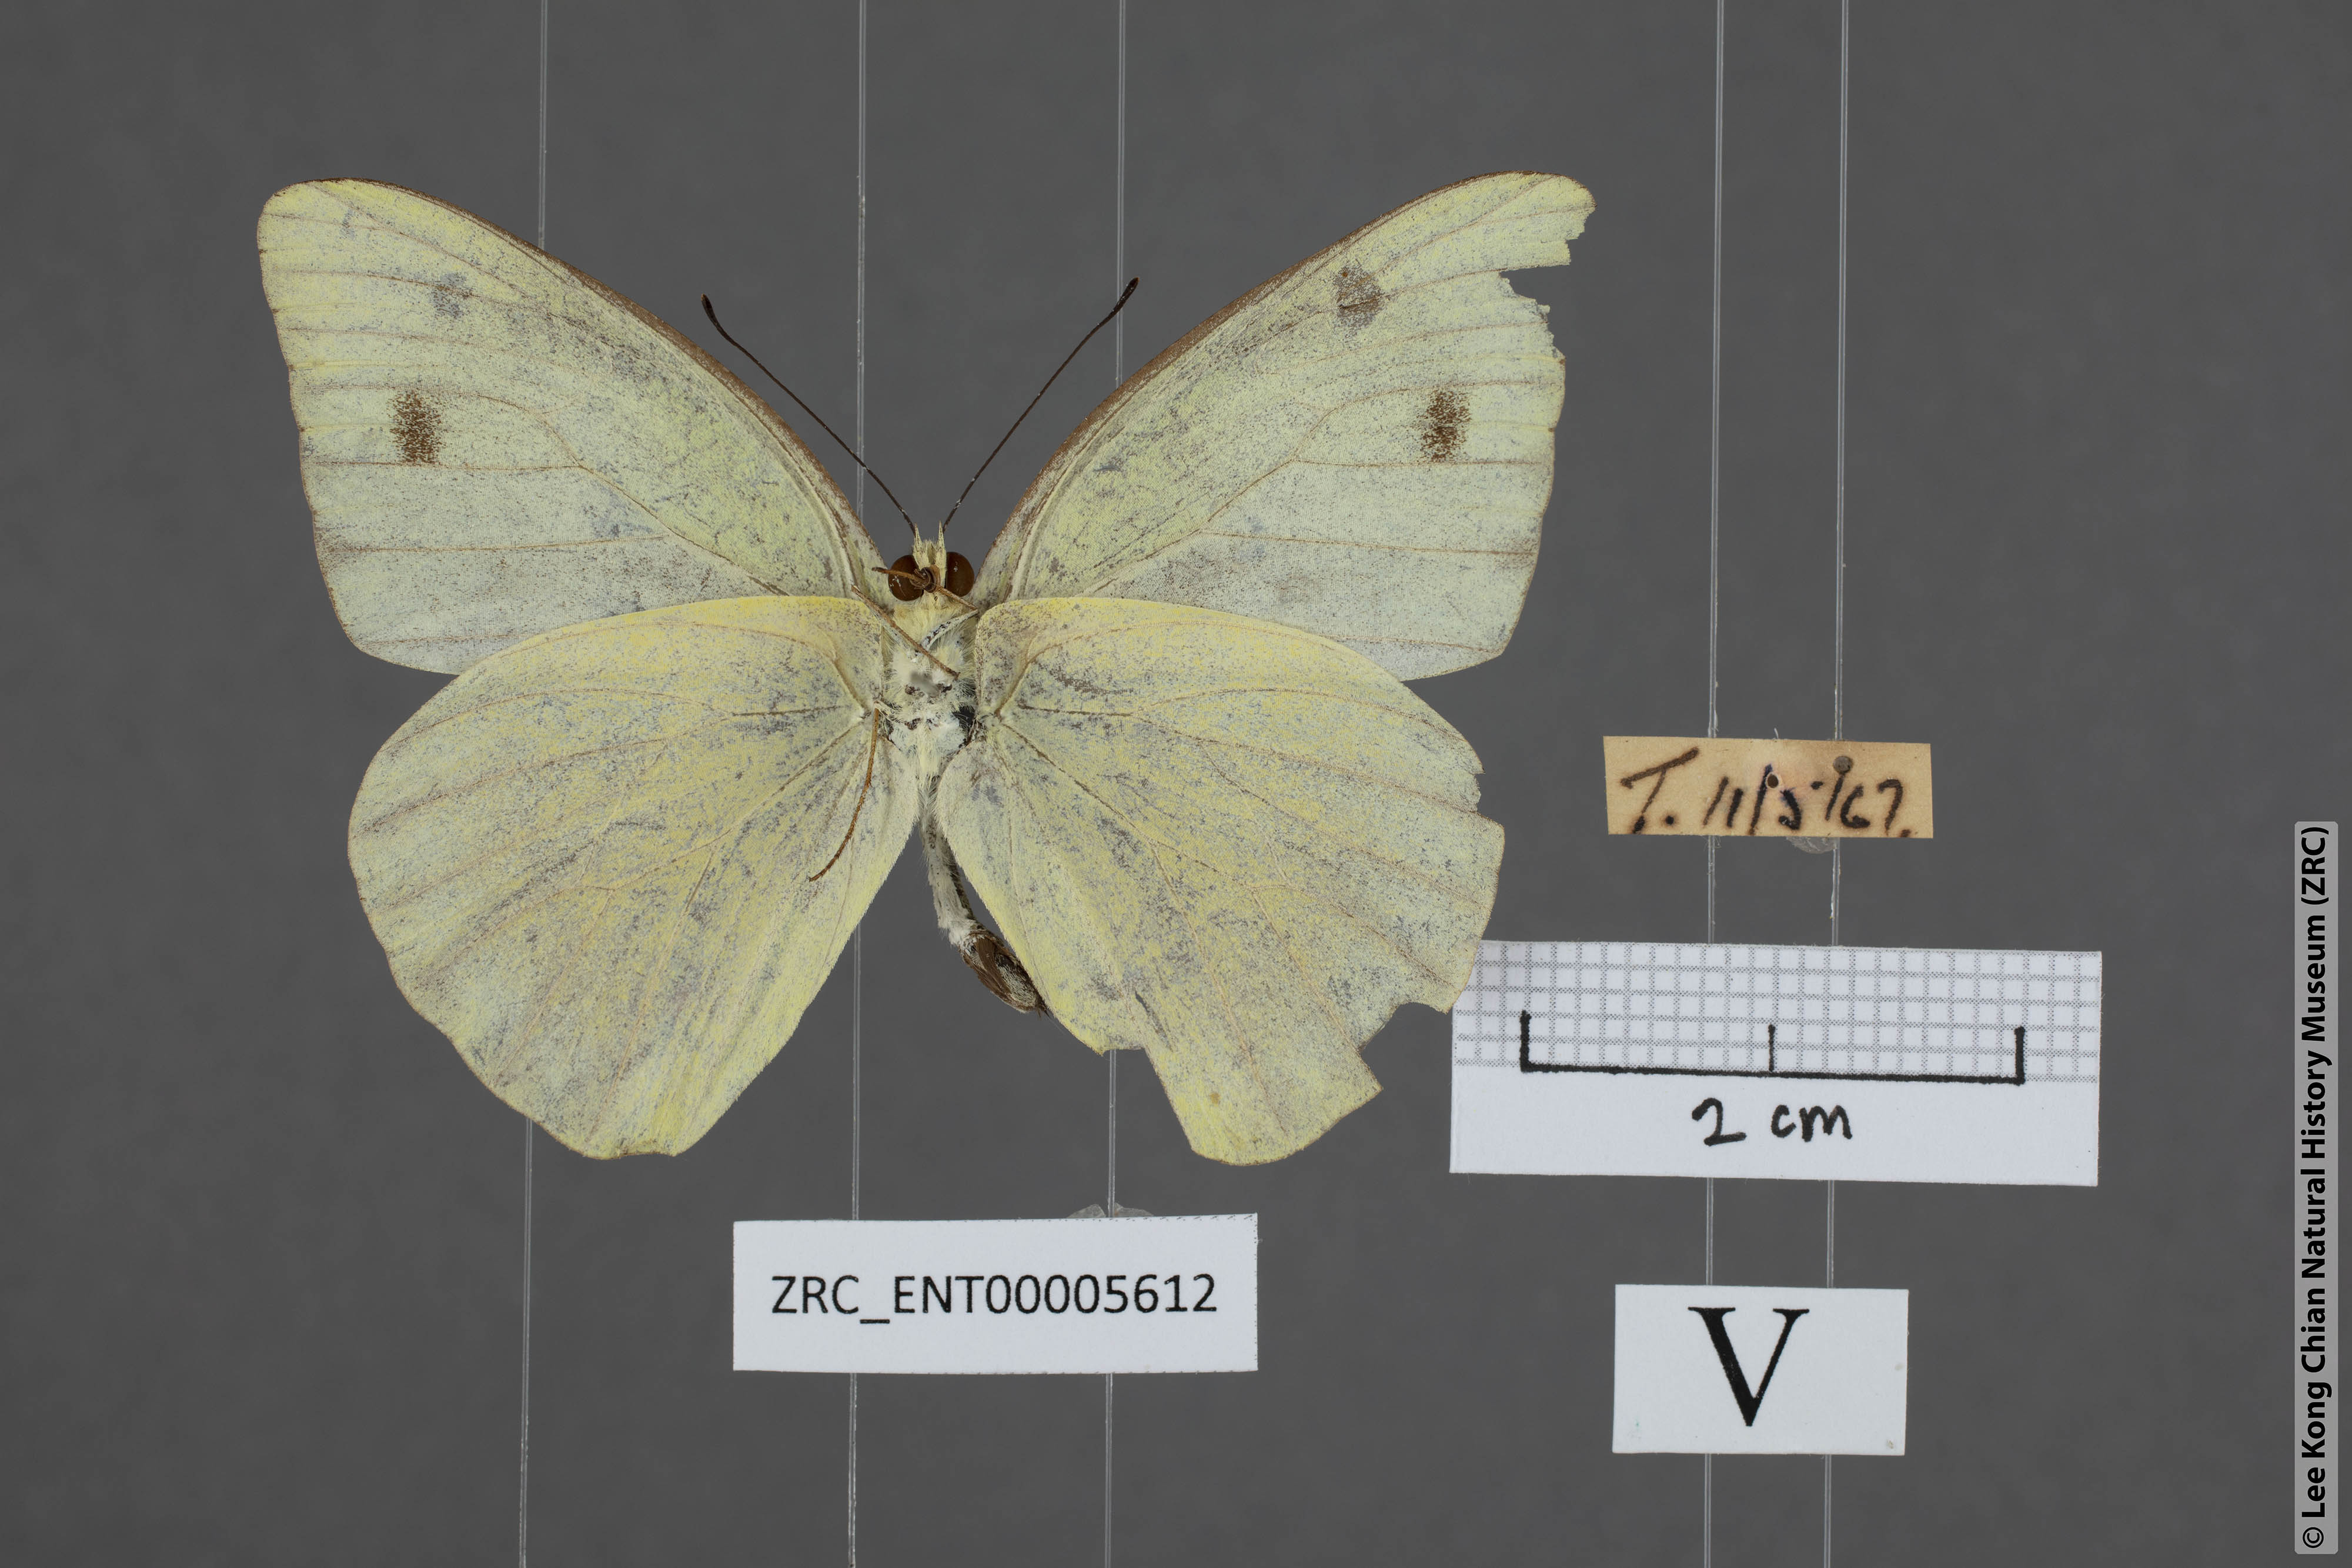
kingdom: Animalia
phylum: Arthropoda
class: Insecta
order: Lepidoptera
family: Pieridae
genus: Appias
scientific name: Appias paulina
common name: Ceylon lesser albatross
